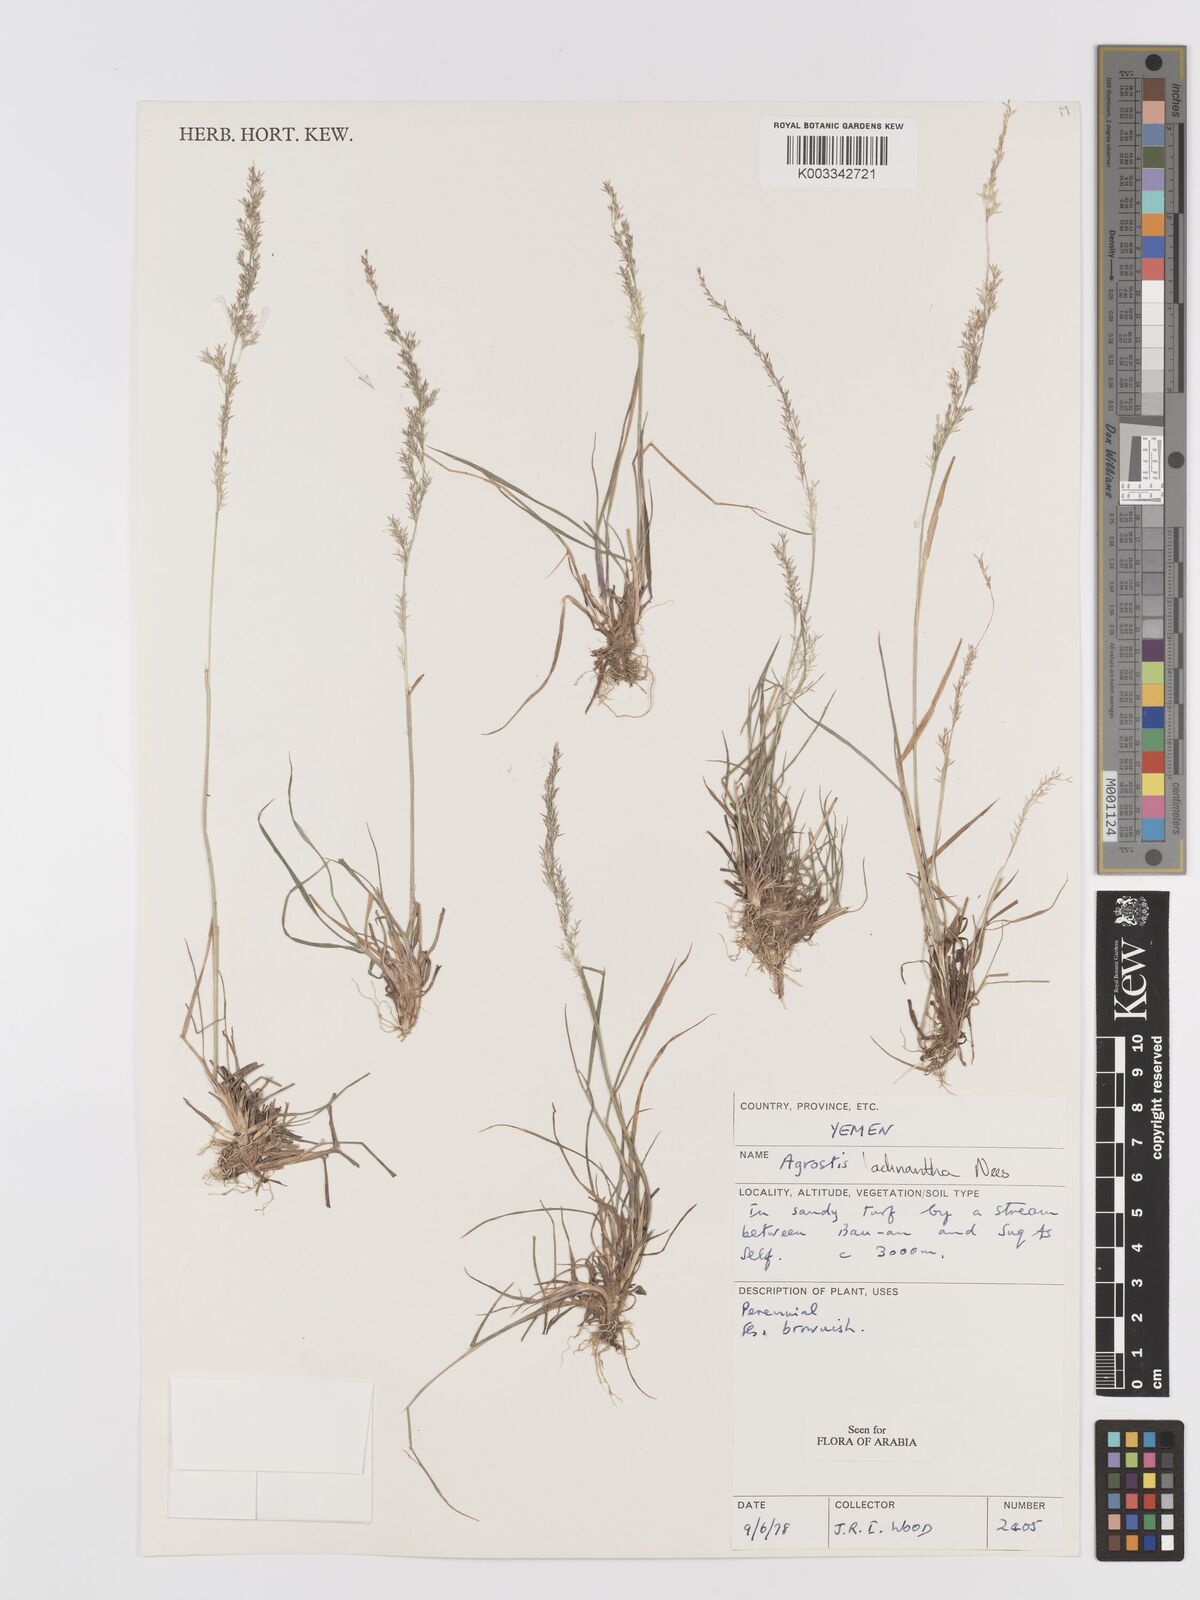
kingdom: Plantae
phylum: Tracheophyta
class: Liliopsida
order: Poales
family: Poaceae
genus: Lachnagrostis
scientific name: Lachnagrostis lachnantha
